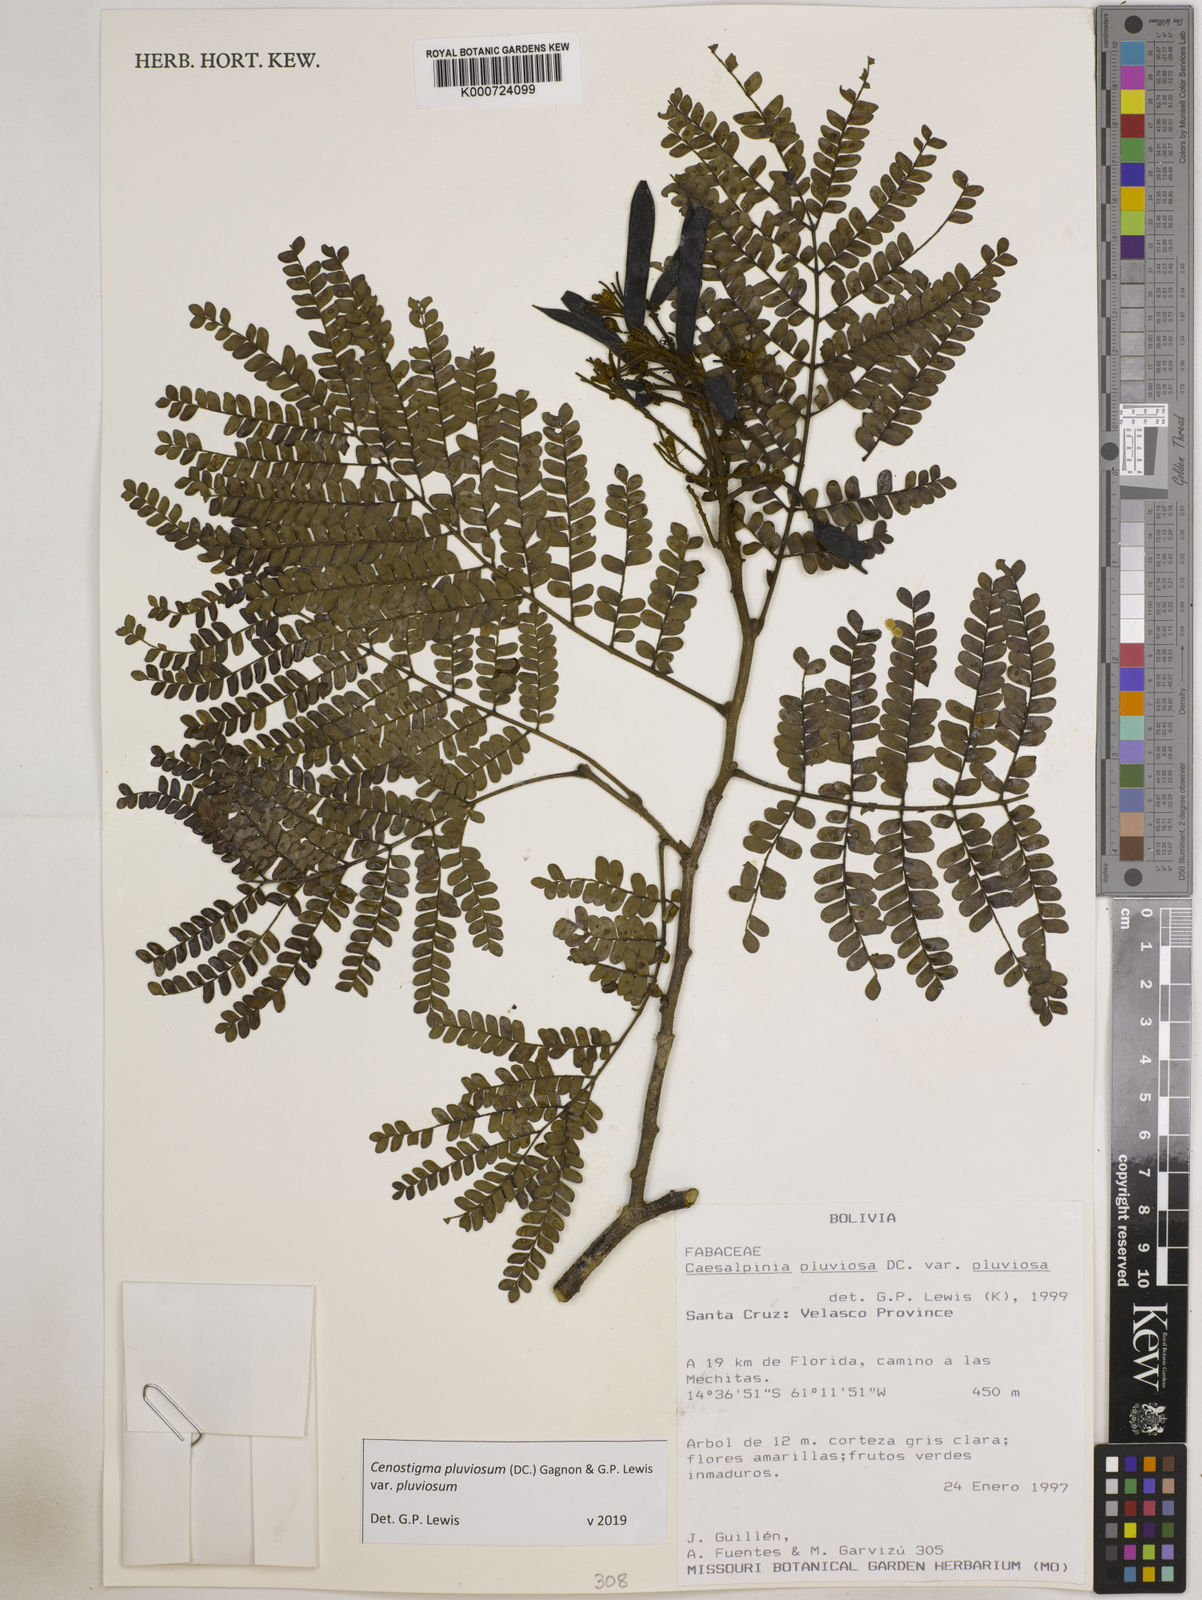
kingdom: Plantae
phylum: Tracheophyta
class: Magnoliopsida
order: Fabales
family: Fabaceae
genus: Cenostigma
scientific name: Cenostigma pluviosum
